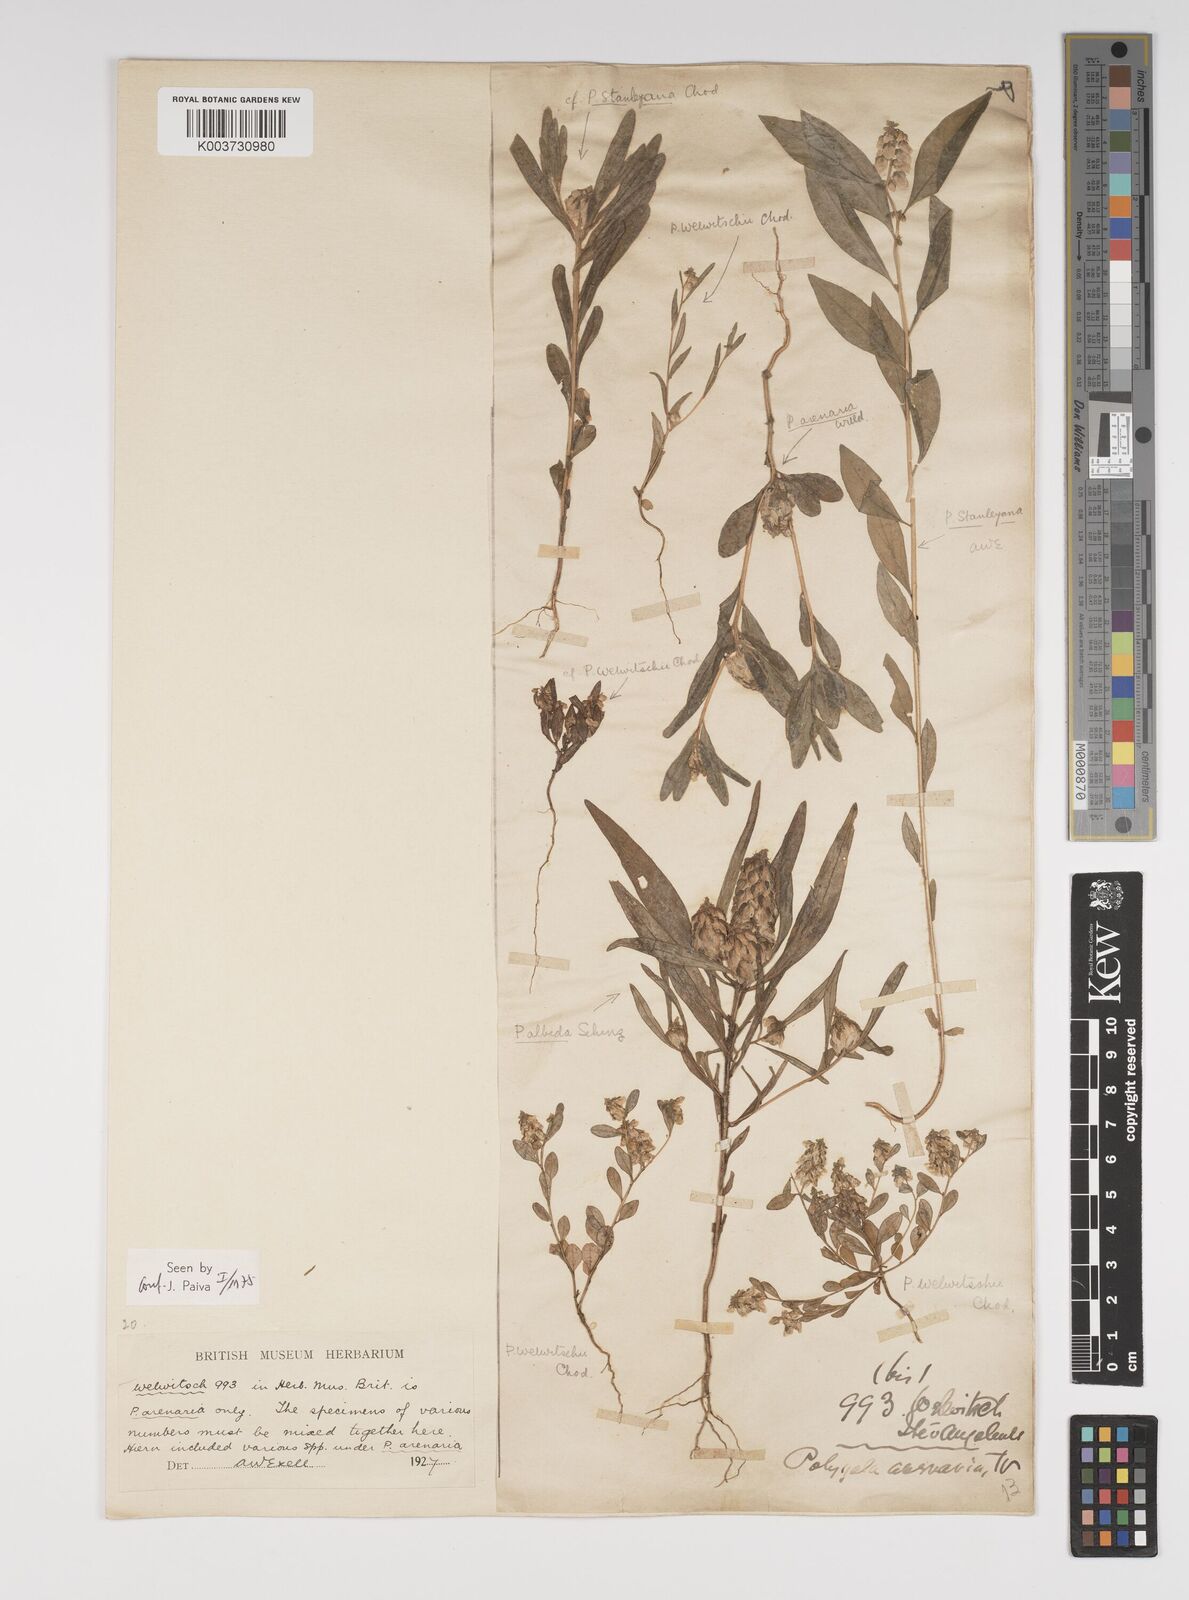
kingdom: Plantae
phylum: Tracheophyta
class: Magnoliopsida
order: Fabales
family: Polygalaceae
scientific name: Polygalaceae
